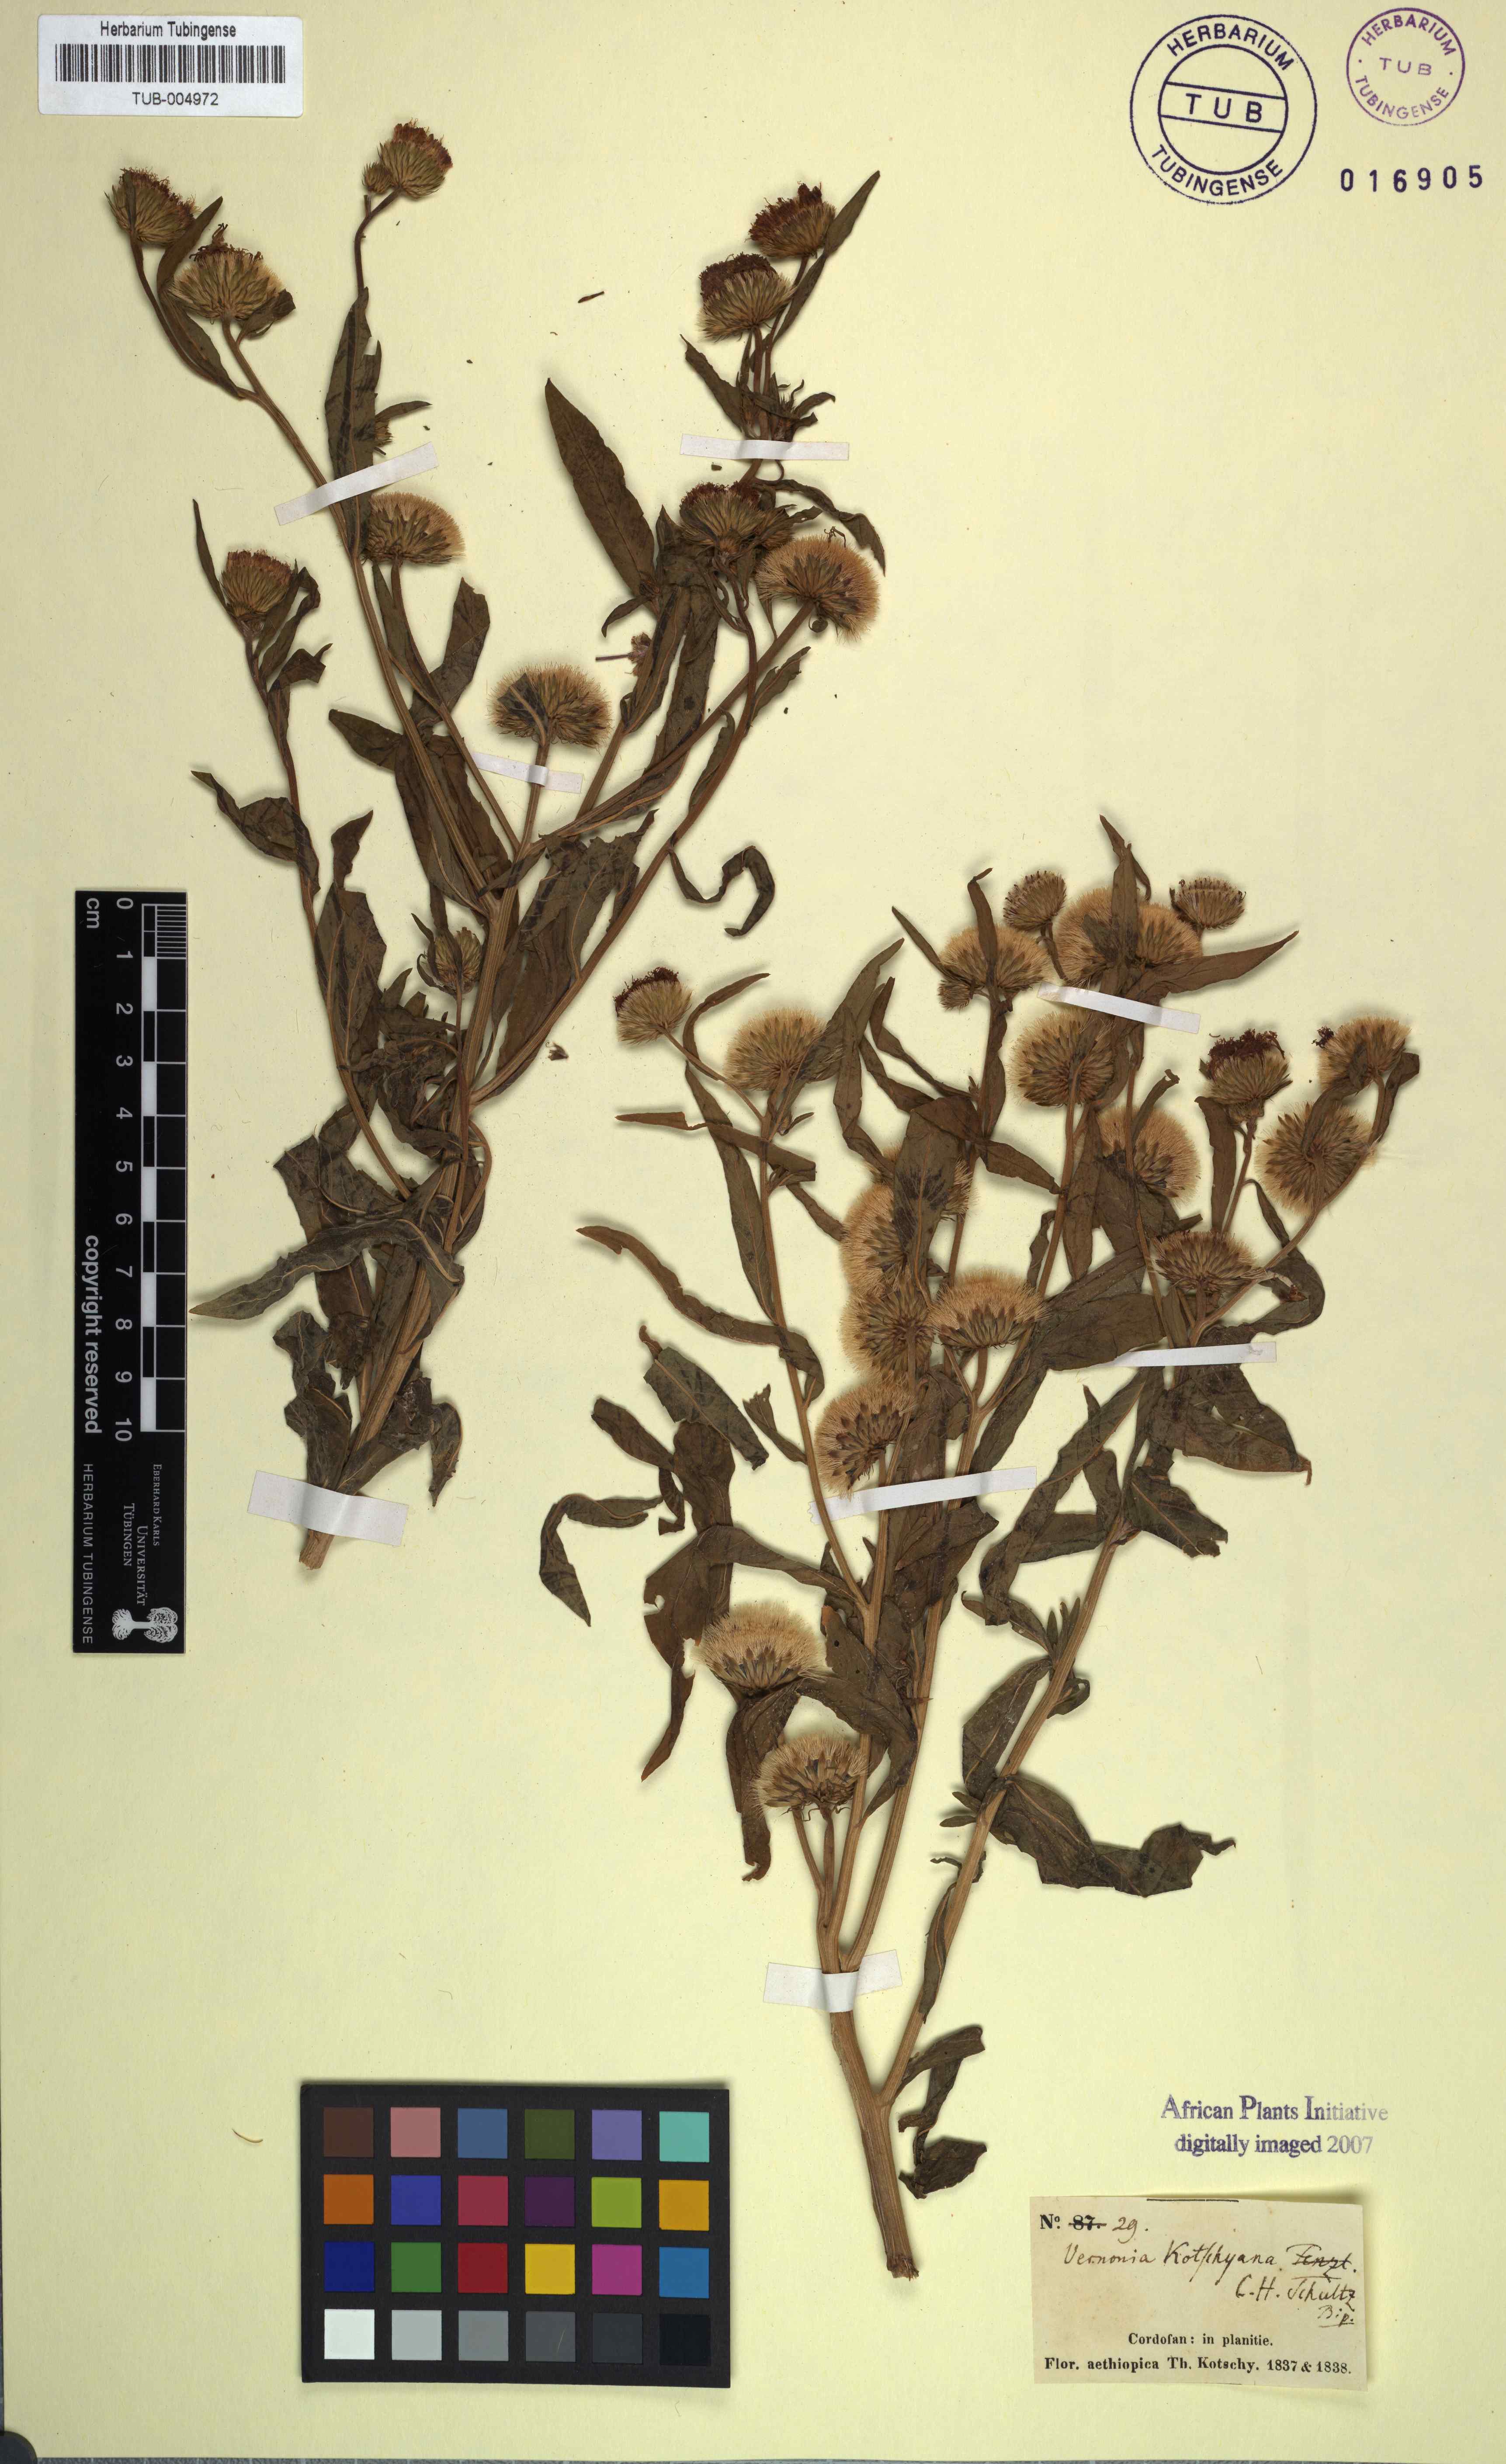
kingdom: Plantae
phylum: Tracheophyta
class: Magnoliopsida
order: Asterales
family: Asteraceae
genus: Baccharoides
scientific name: Baccharoides adoensis
